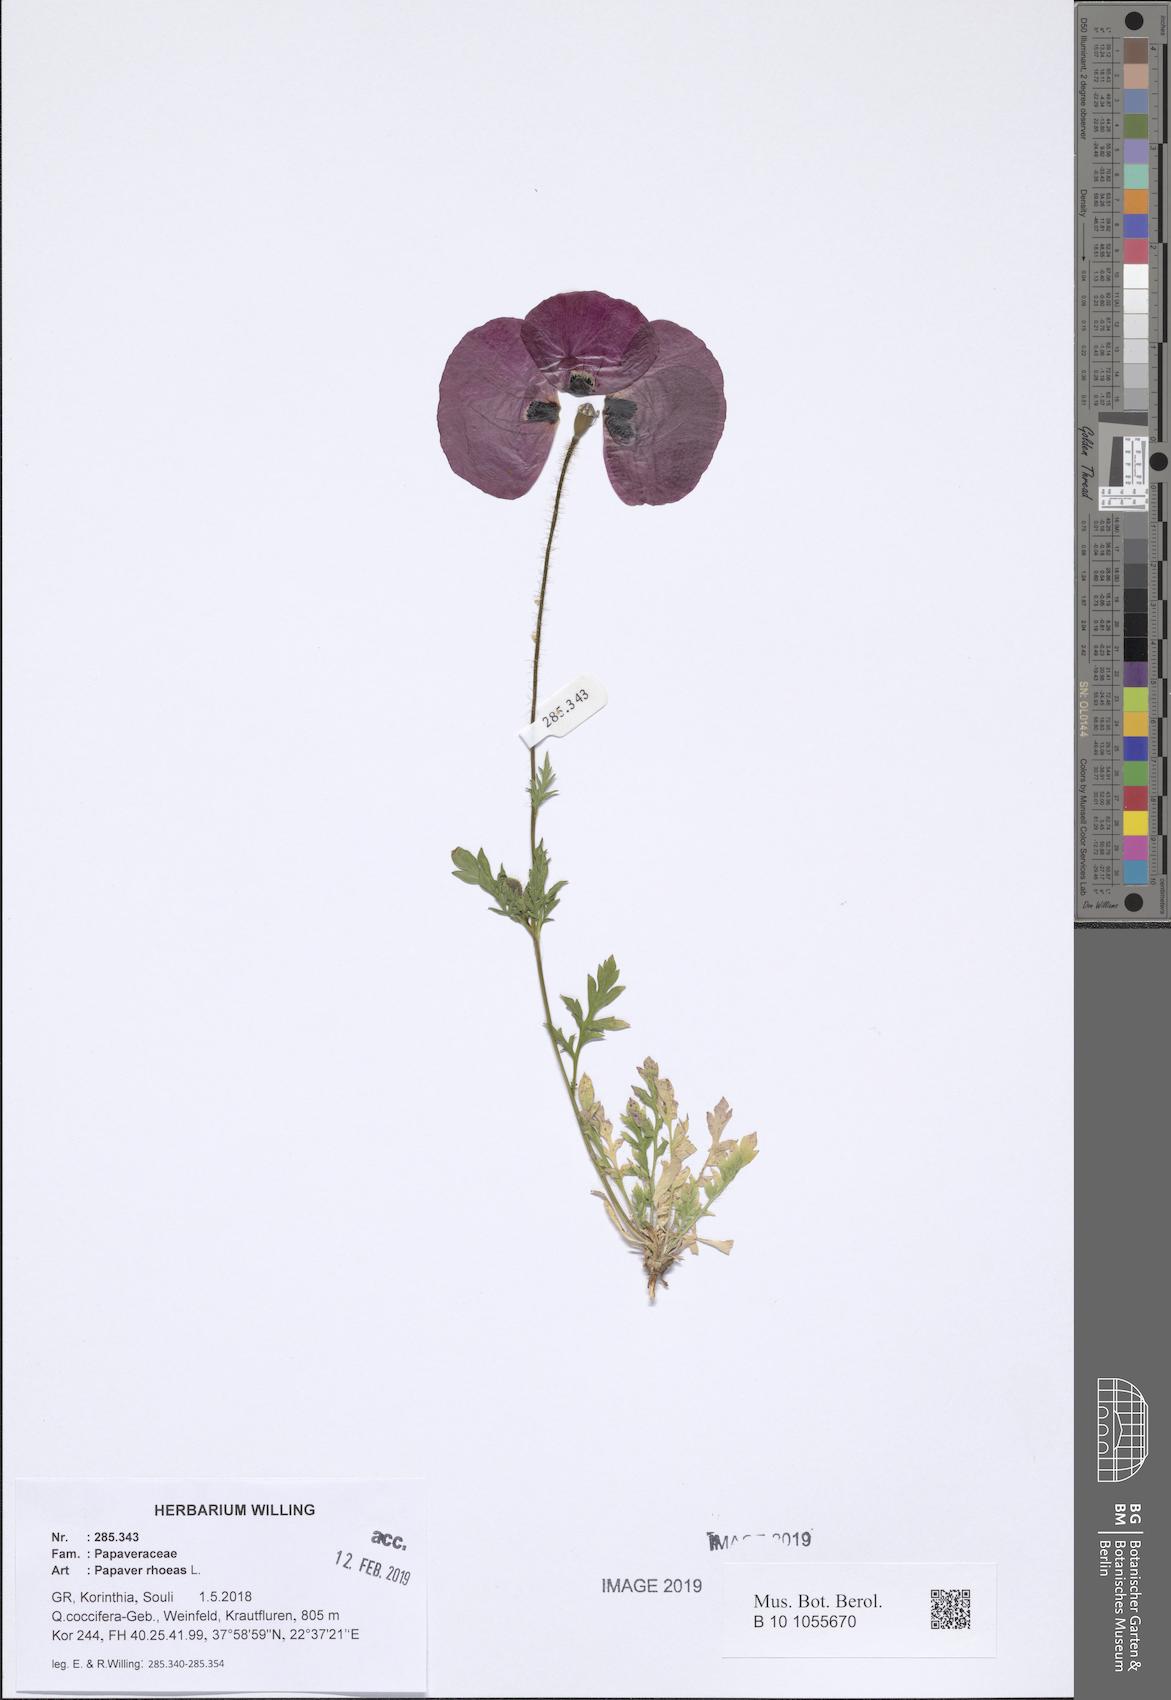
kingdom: Plantae
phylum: Tracheophyta
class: Magnoliopsida
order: Ranunculales
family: Papaveraceae
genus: Papaver
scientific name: Papaver rhoeas
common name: Corn poppy
